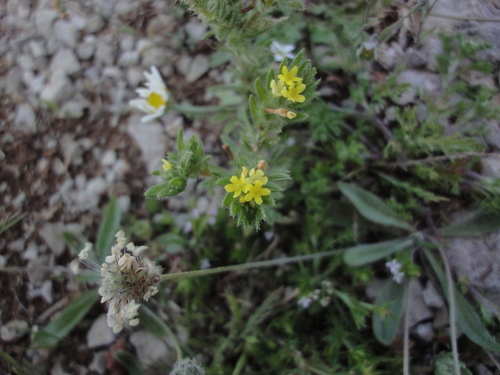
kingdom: Plantae
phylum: Tracheophyta
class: Magnoliopsida
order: Boraginales
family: Boraginaceae
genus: Neatostema
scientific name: Neatostema apulum
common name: Hairy sheepweed
